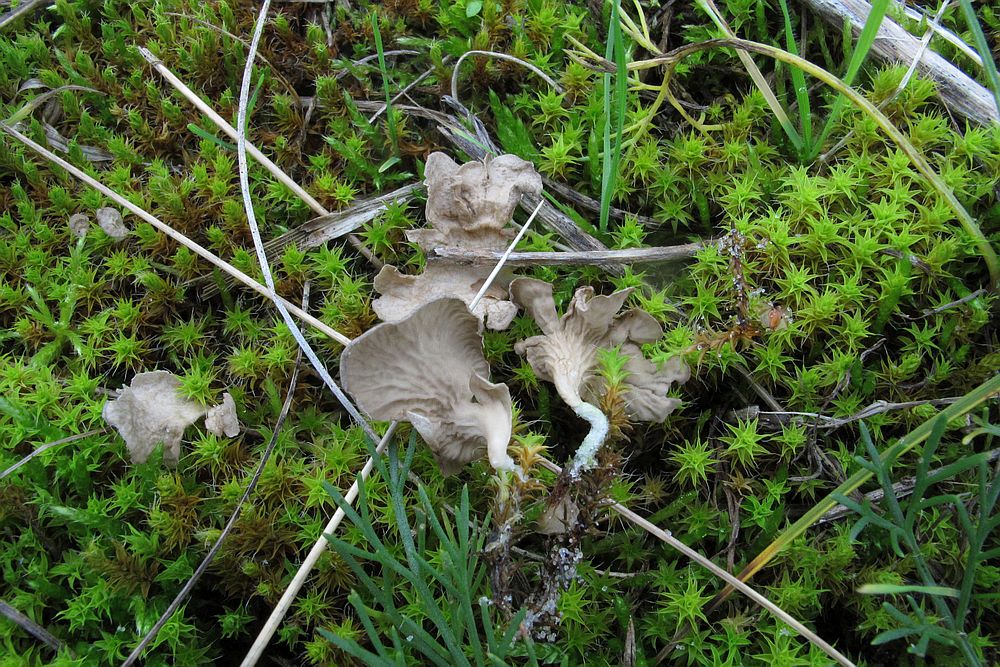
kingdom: Fungi
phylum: Basidiomycota
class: Agaricomycetes
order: Agaricales
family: Hygrophoraceae
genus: Arrhenia
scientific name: Arrhenia spathulata
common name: skæv fontænehat
